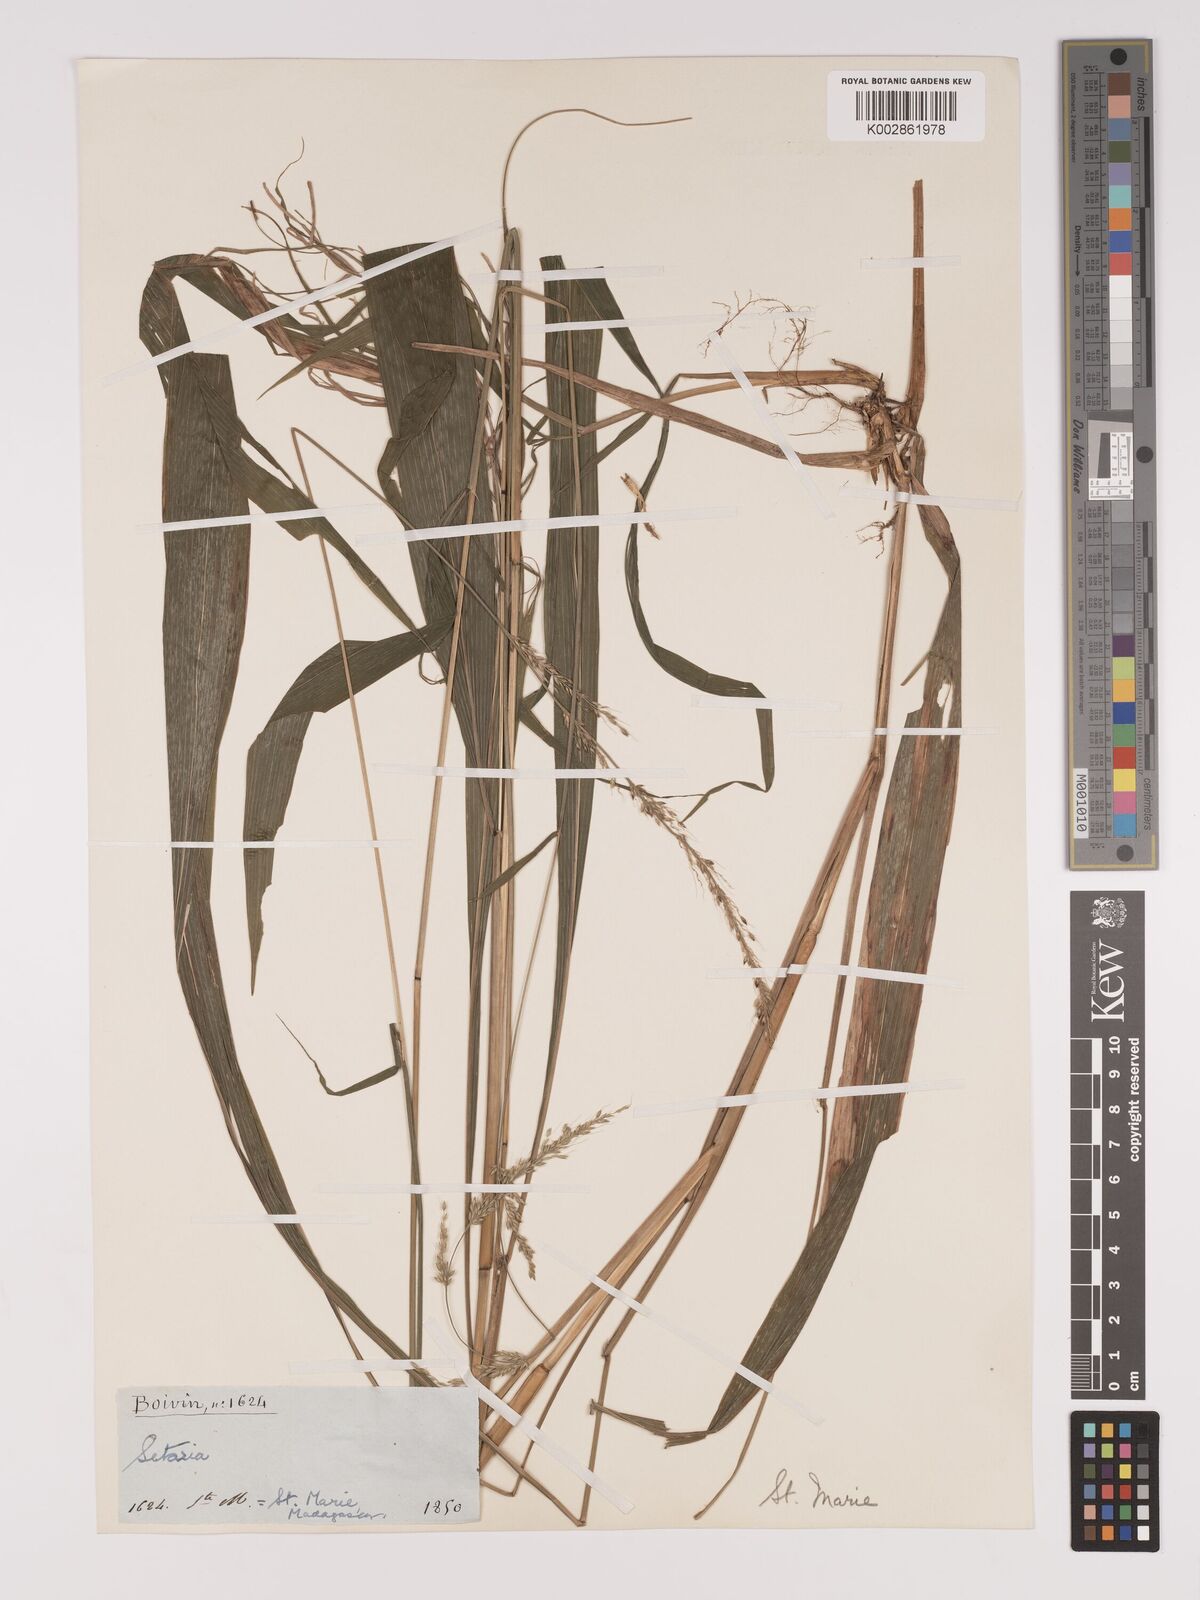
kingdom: Plantae
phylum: Tracheophyta
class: Liliopsida
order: Poales
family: Poaceae
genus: Setaria
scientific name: Setaria megaphylla
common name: Bigleaf bristlegrass
